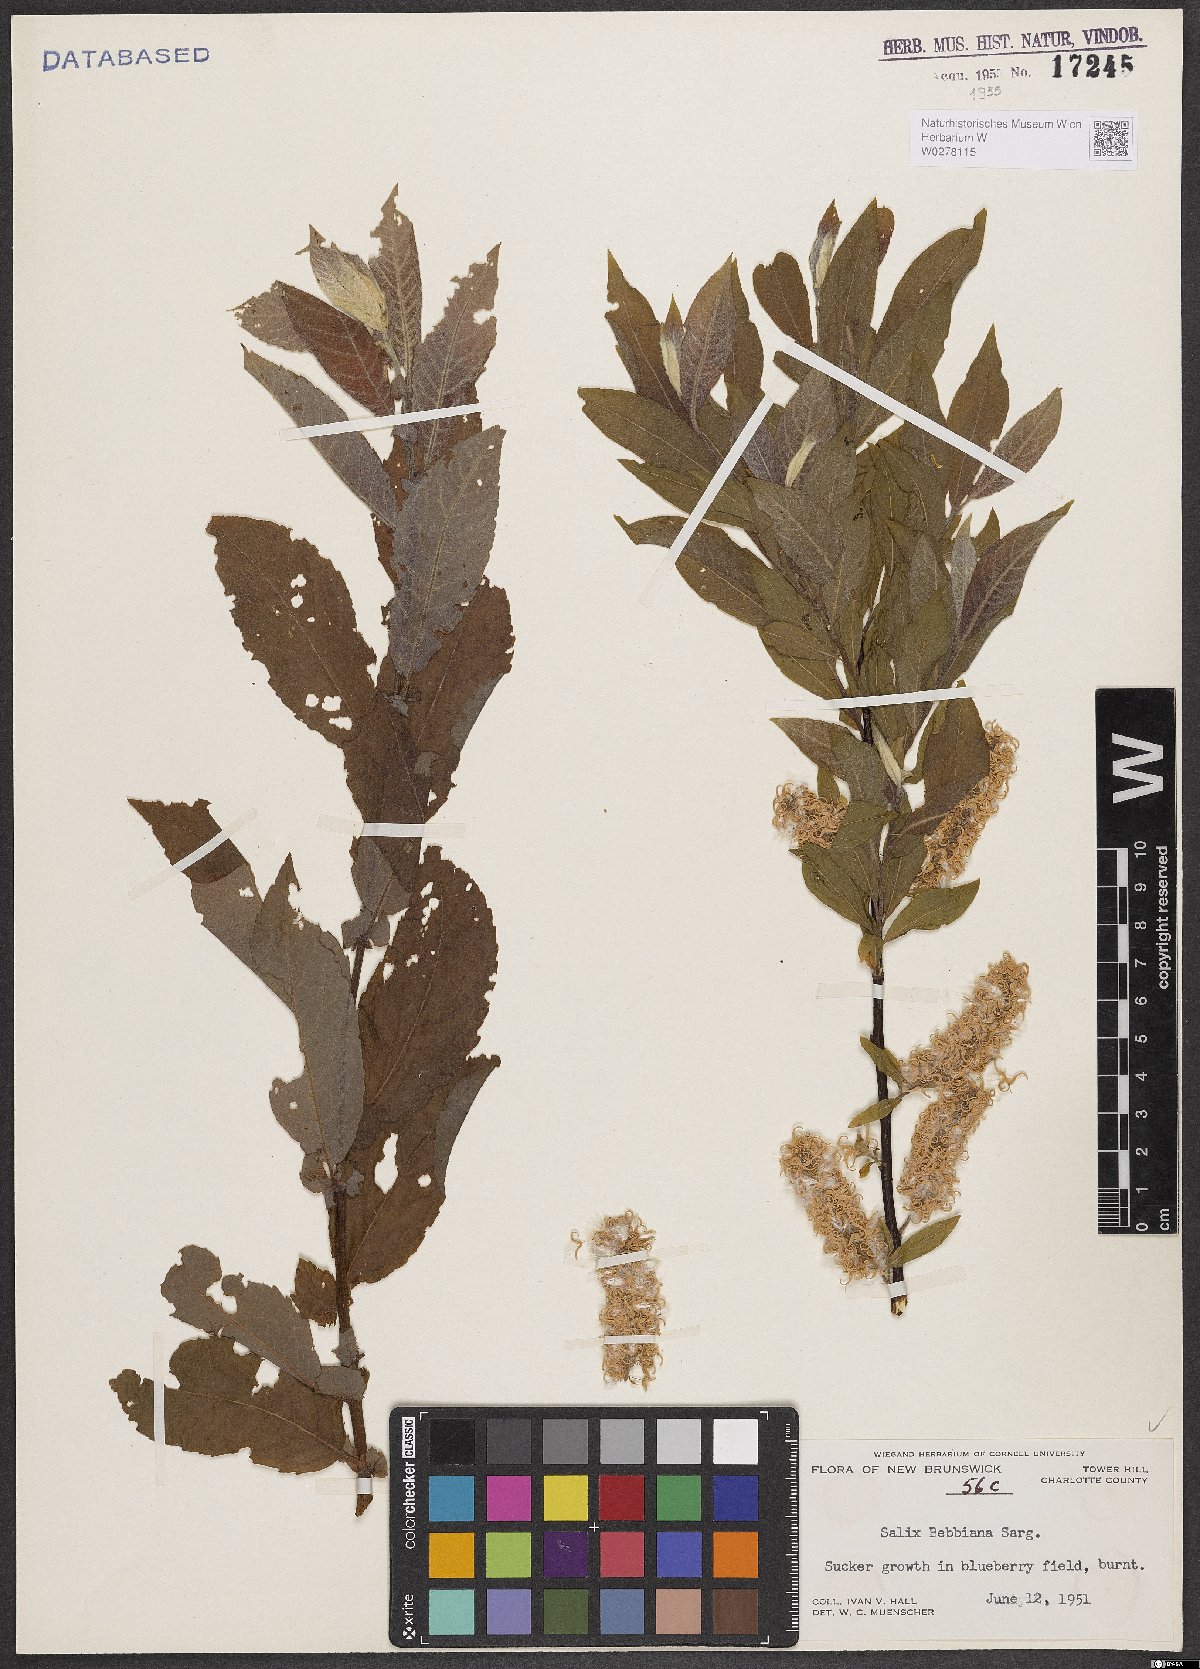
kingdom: Plantae
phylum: Tracheophyta
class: Magnoliopsida
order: Malpighiales
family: Salicaceae
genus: Salix
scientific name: Salix bebbiana
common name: Bebb's willow
